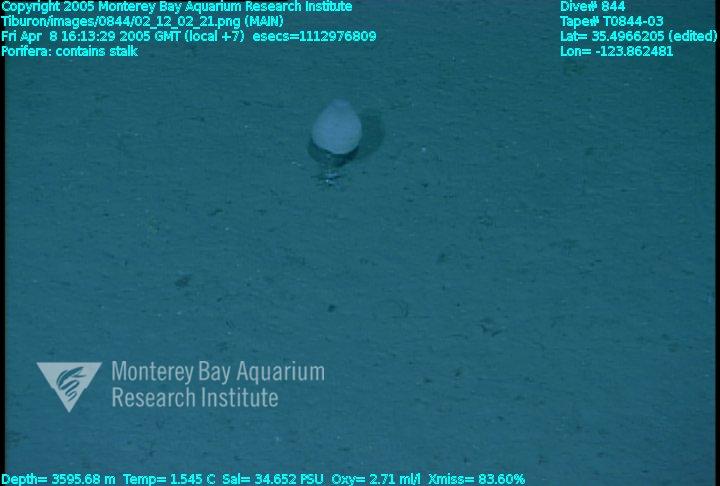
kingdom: Animalia
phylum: Porifera
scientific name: Porifera
